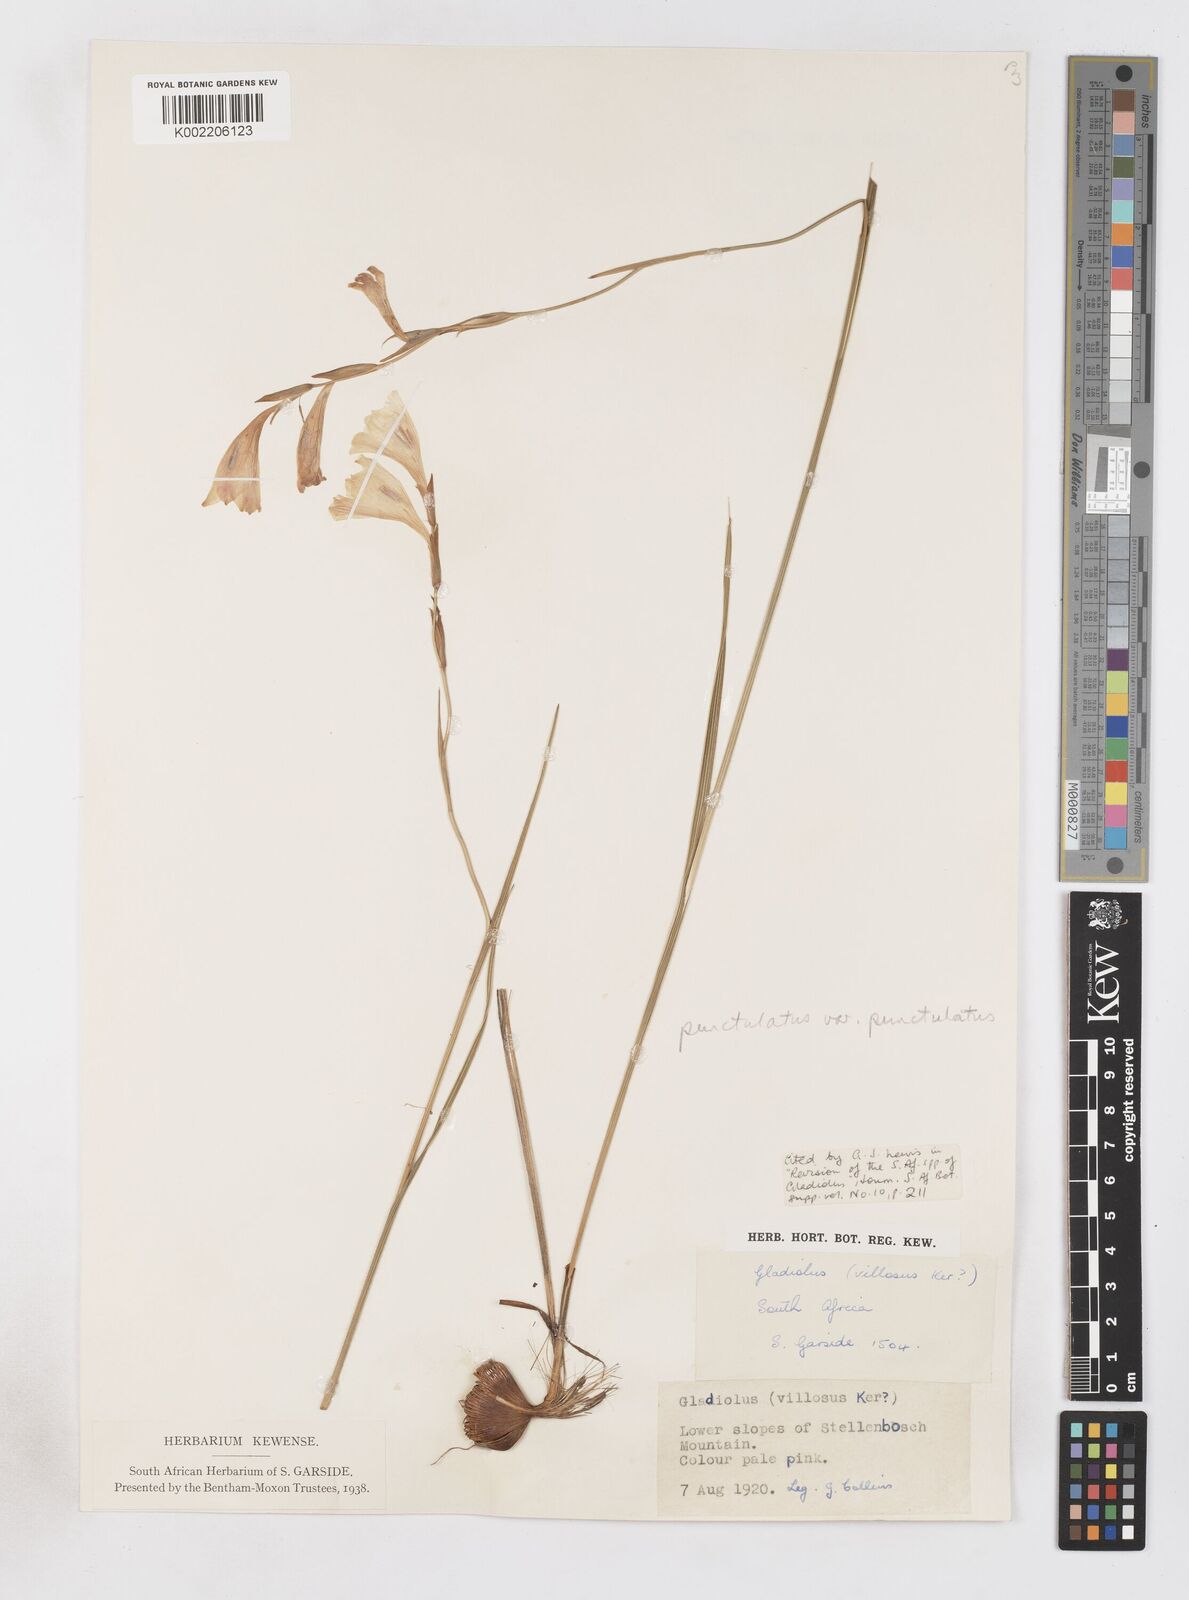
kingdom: Plantae
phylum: Tracheophyta
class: Liliopsida
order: Asparagales
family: Iridaceae
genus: Gladiolus
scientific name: Gladiolus hirsutus
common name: Small pink afrikaner
